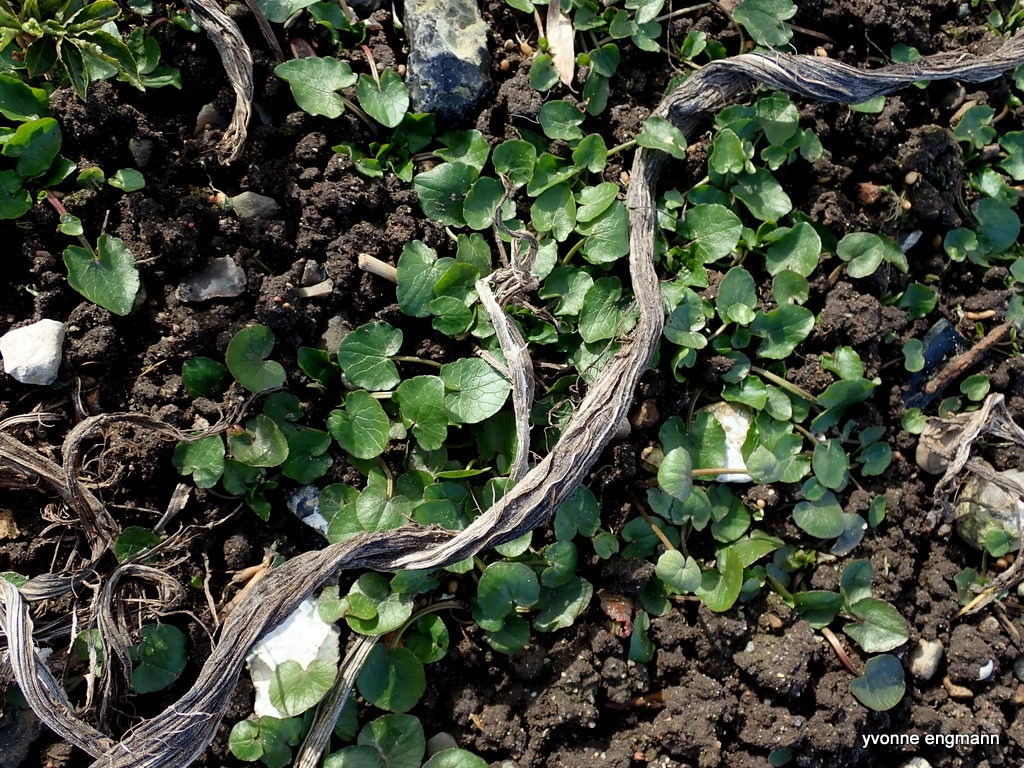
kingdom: Plantae
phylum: Tracheophyta
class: Magnoliopsida
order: Ranunculales
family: Ranunculaceae
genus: Ficaria
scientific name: Ficaria verna
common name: Vorterod
